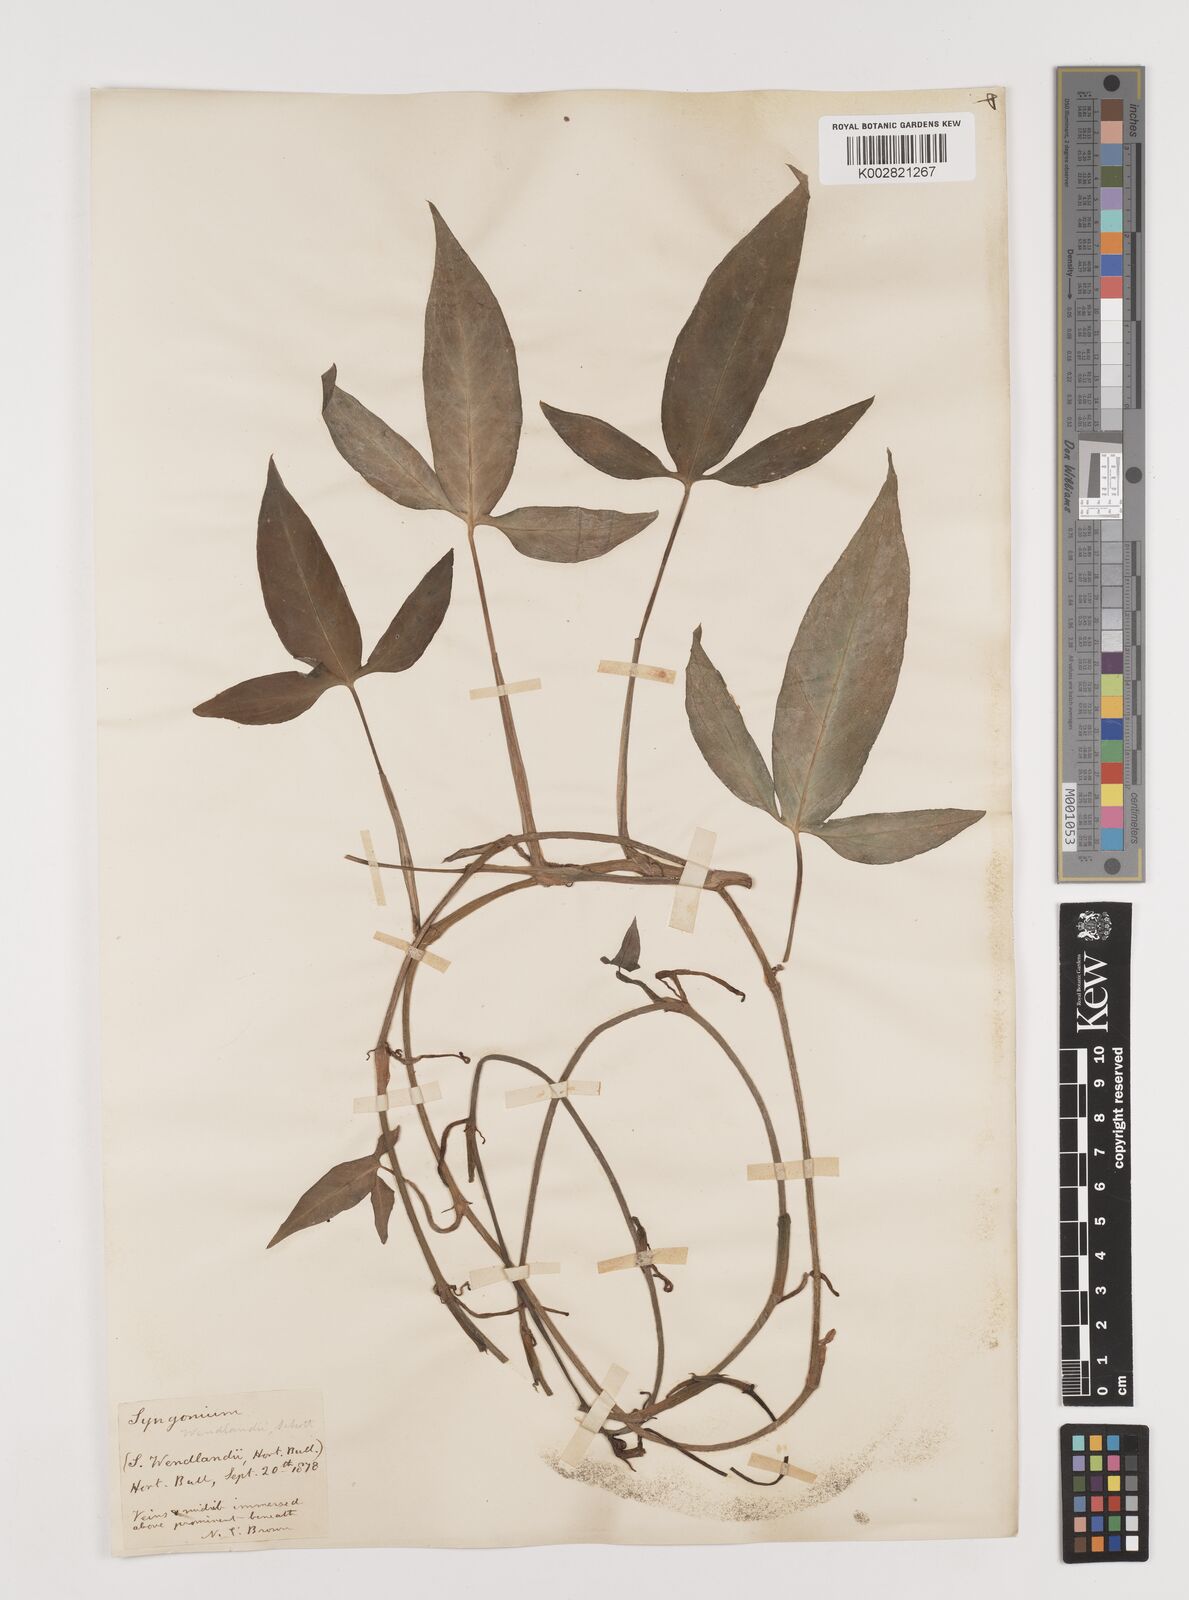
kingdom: Plantae
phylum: Tracheophyta
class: Liliopsida
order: Alismatales
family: Araceae
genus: Syngonium
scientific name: Syngonium wendlandii
